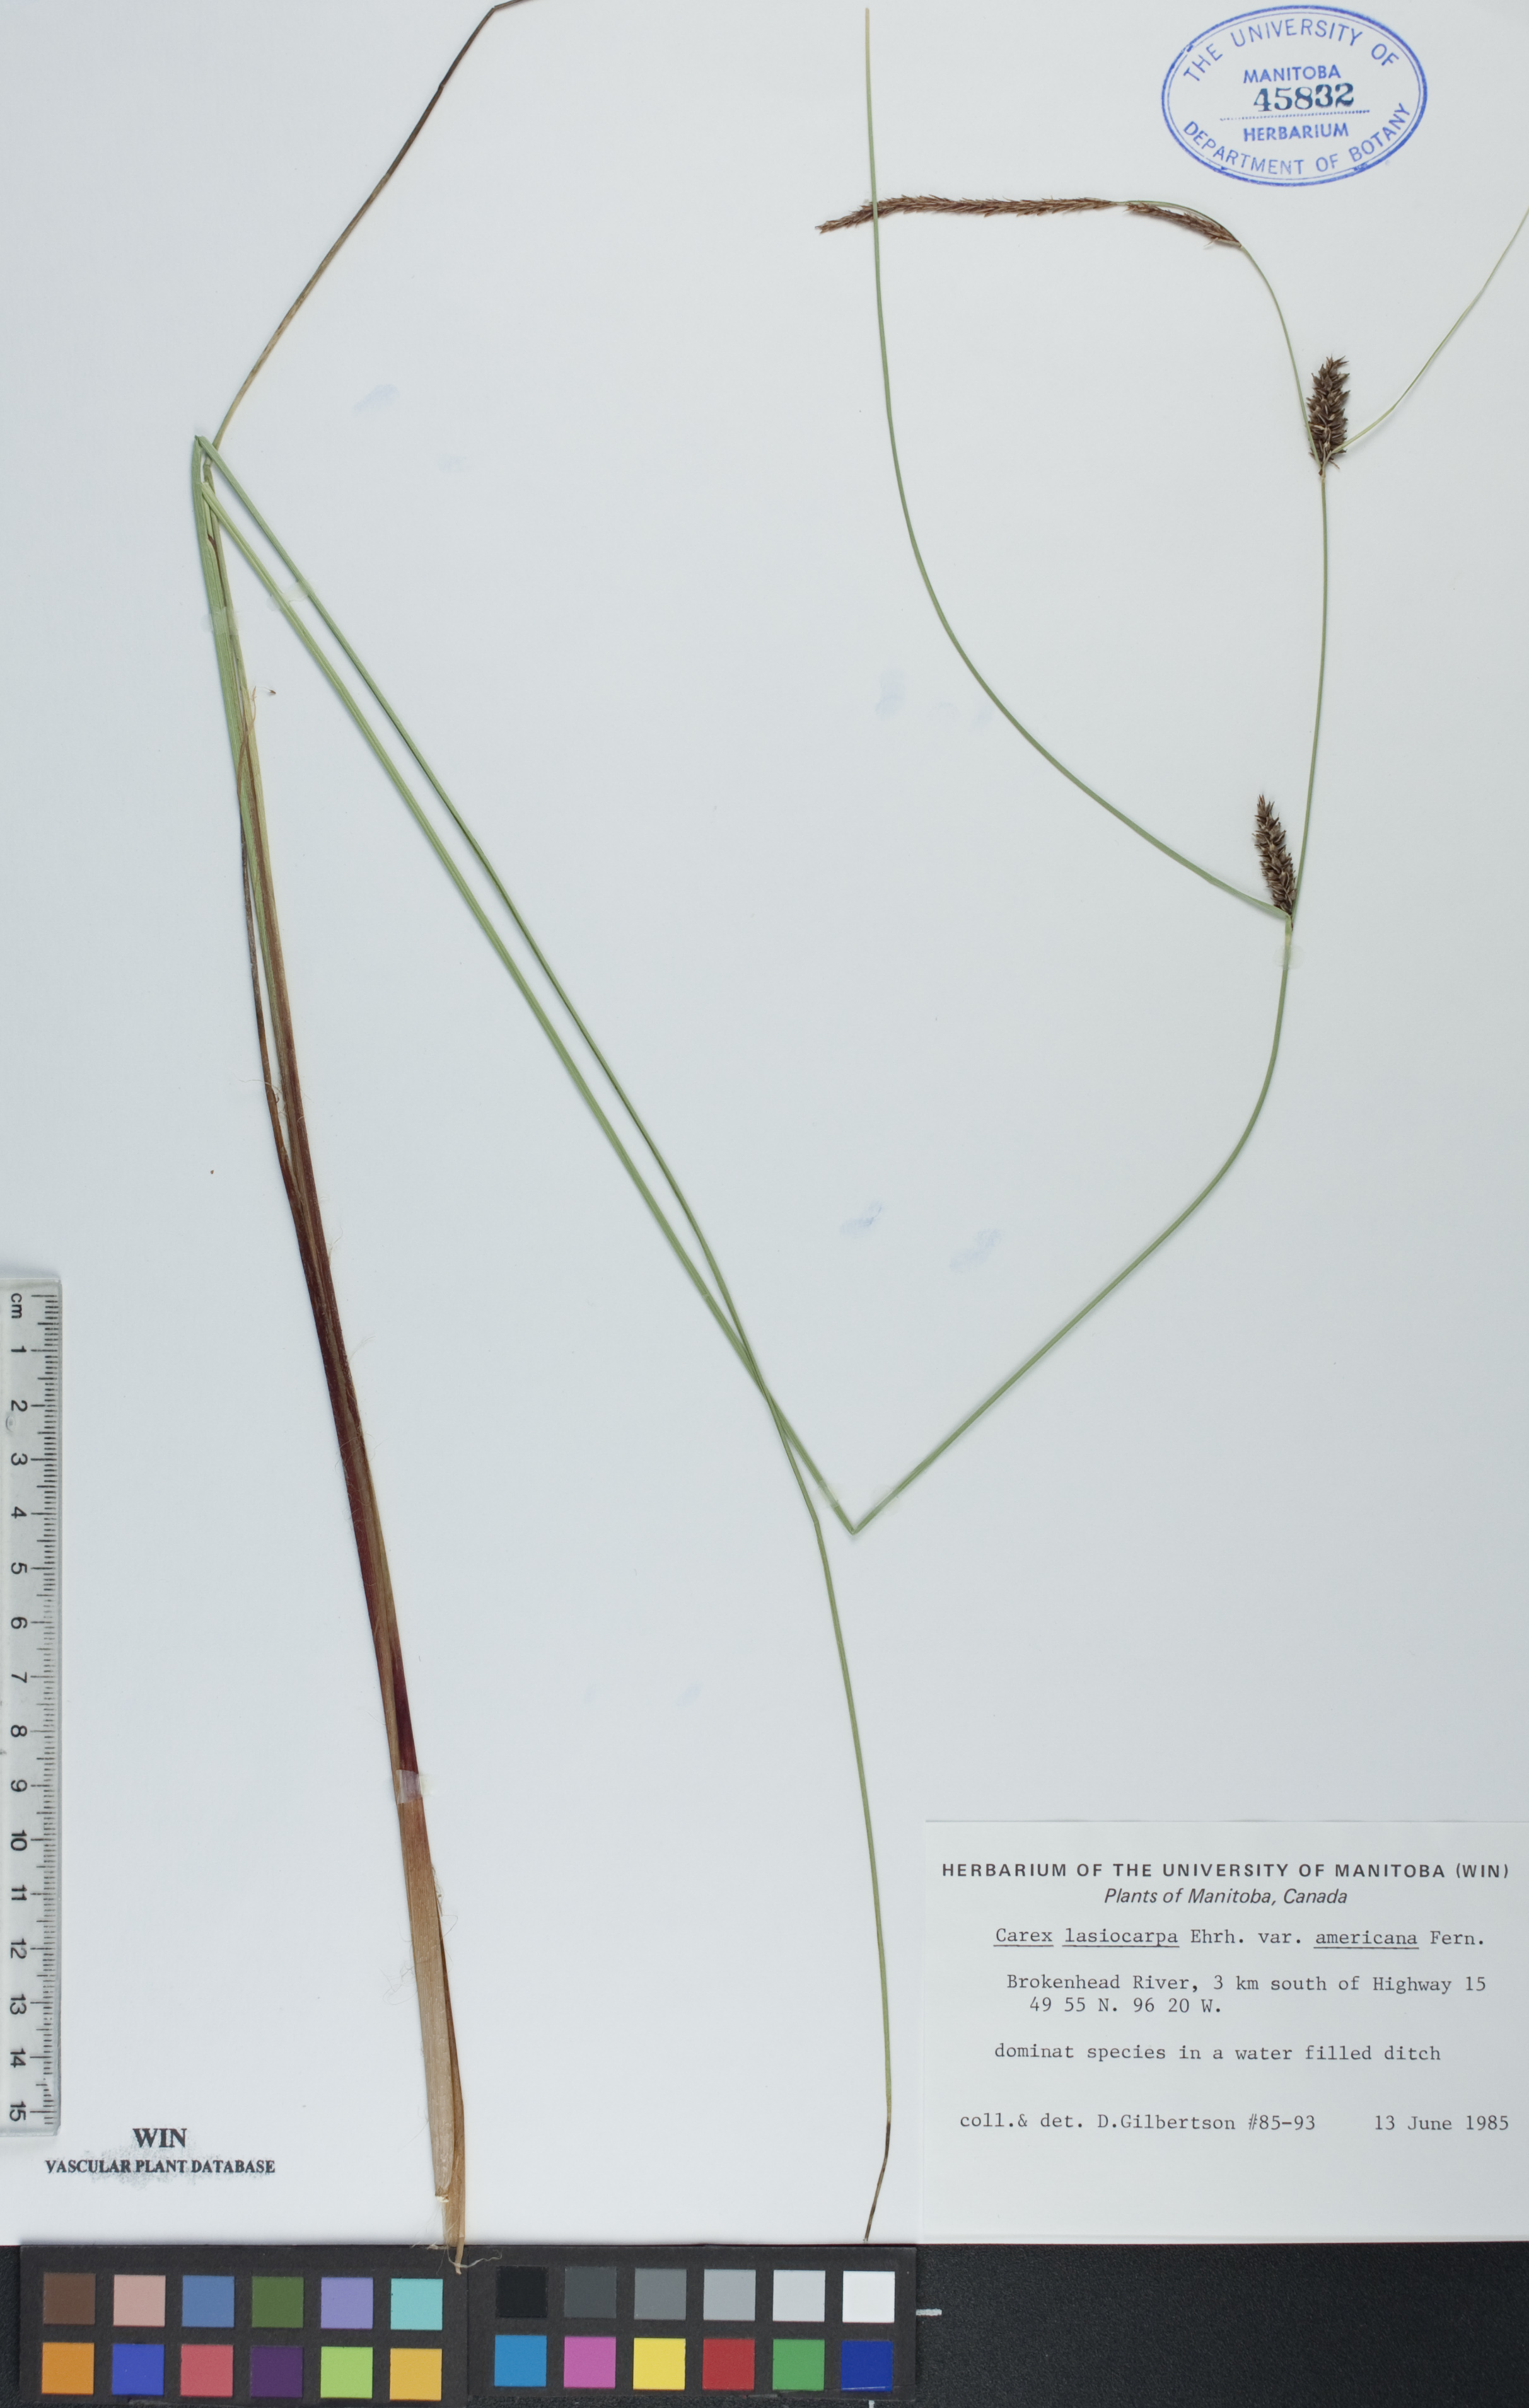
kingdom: Plantae
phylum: Tracheophyta
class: Liliopsida
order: Poales
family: Cyperaceae
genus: Carex
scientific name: Carex lasiocarpa
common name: Slender sedge
